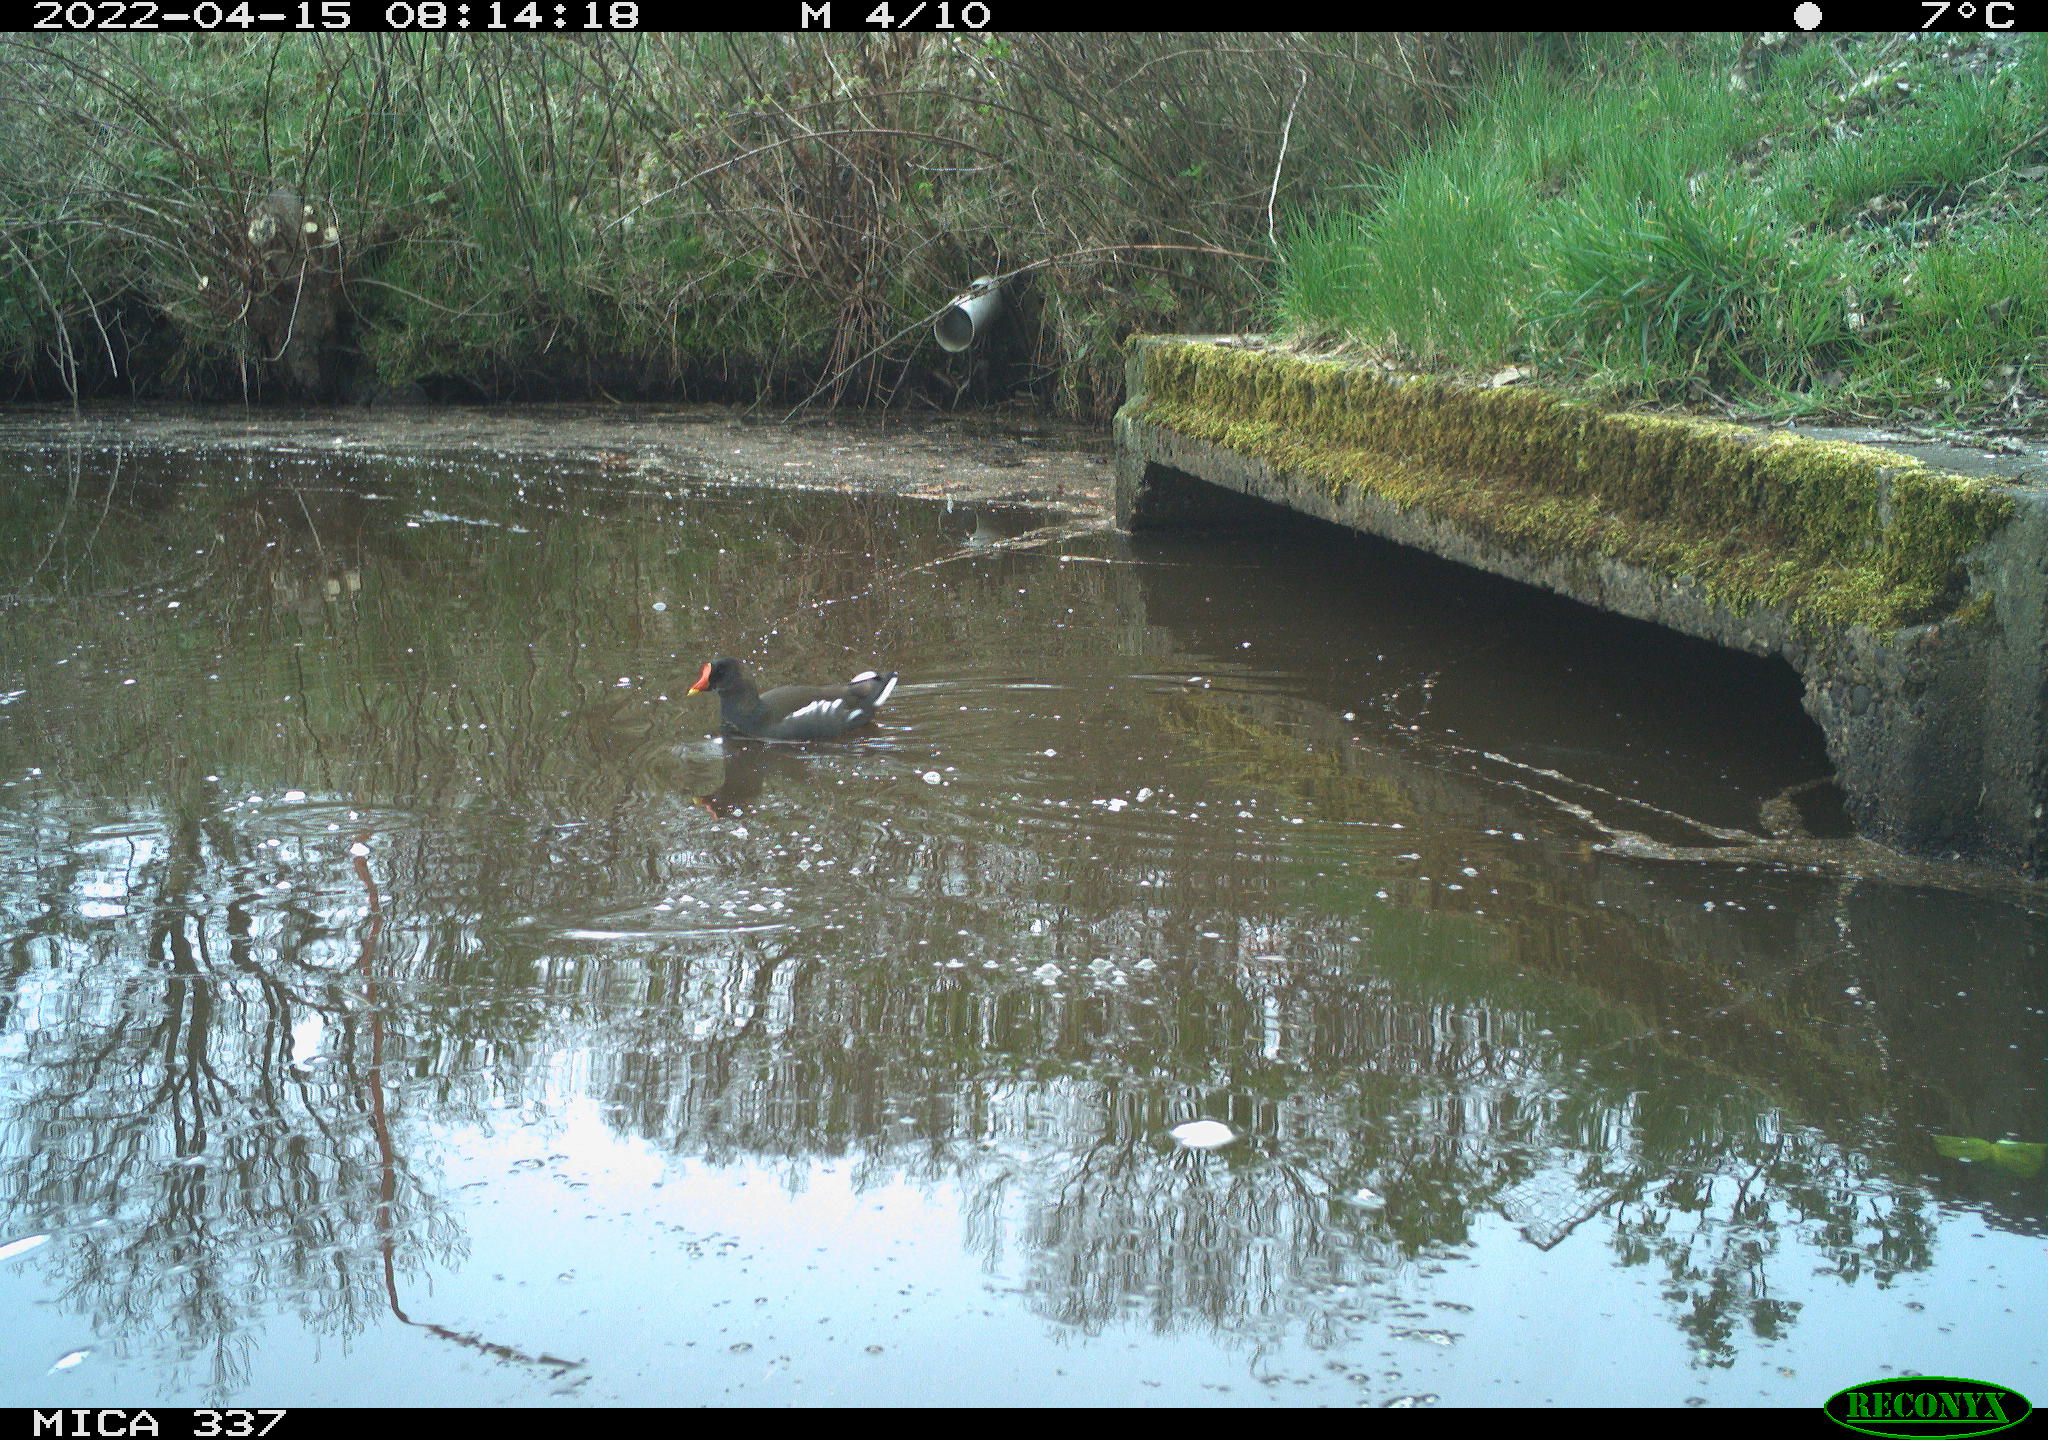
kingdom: Animalia
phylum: Chordata
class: Aves
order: Gruiformes
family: Rallidae
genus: Gallinula
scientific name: Gallinula chloropus
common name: Common moorhen
